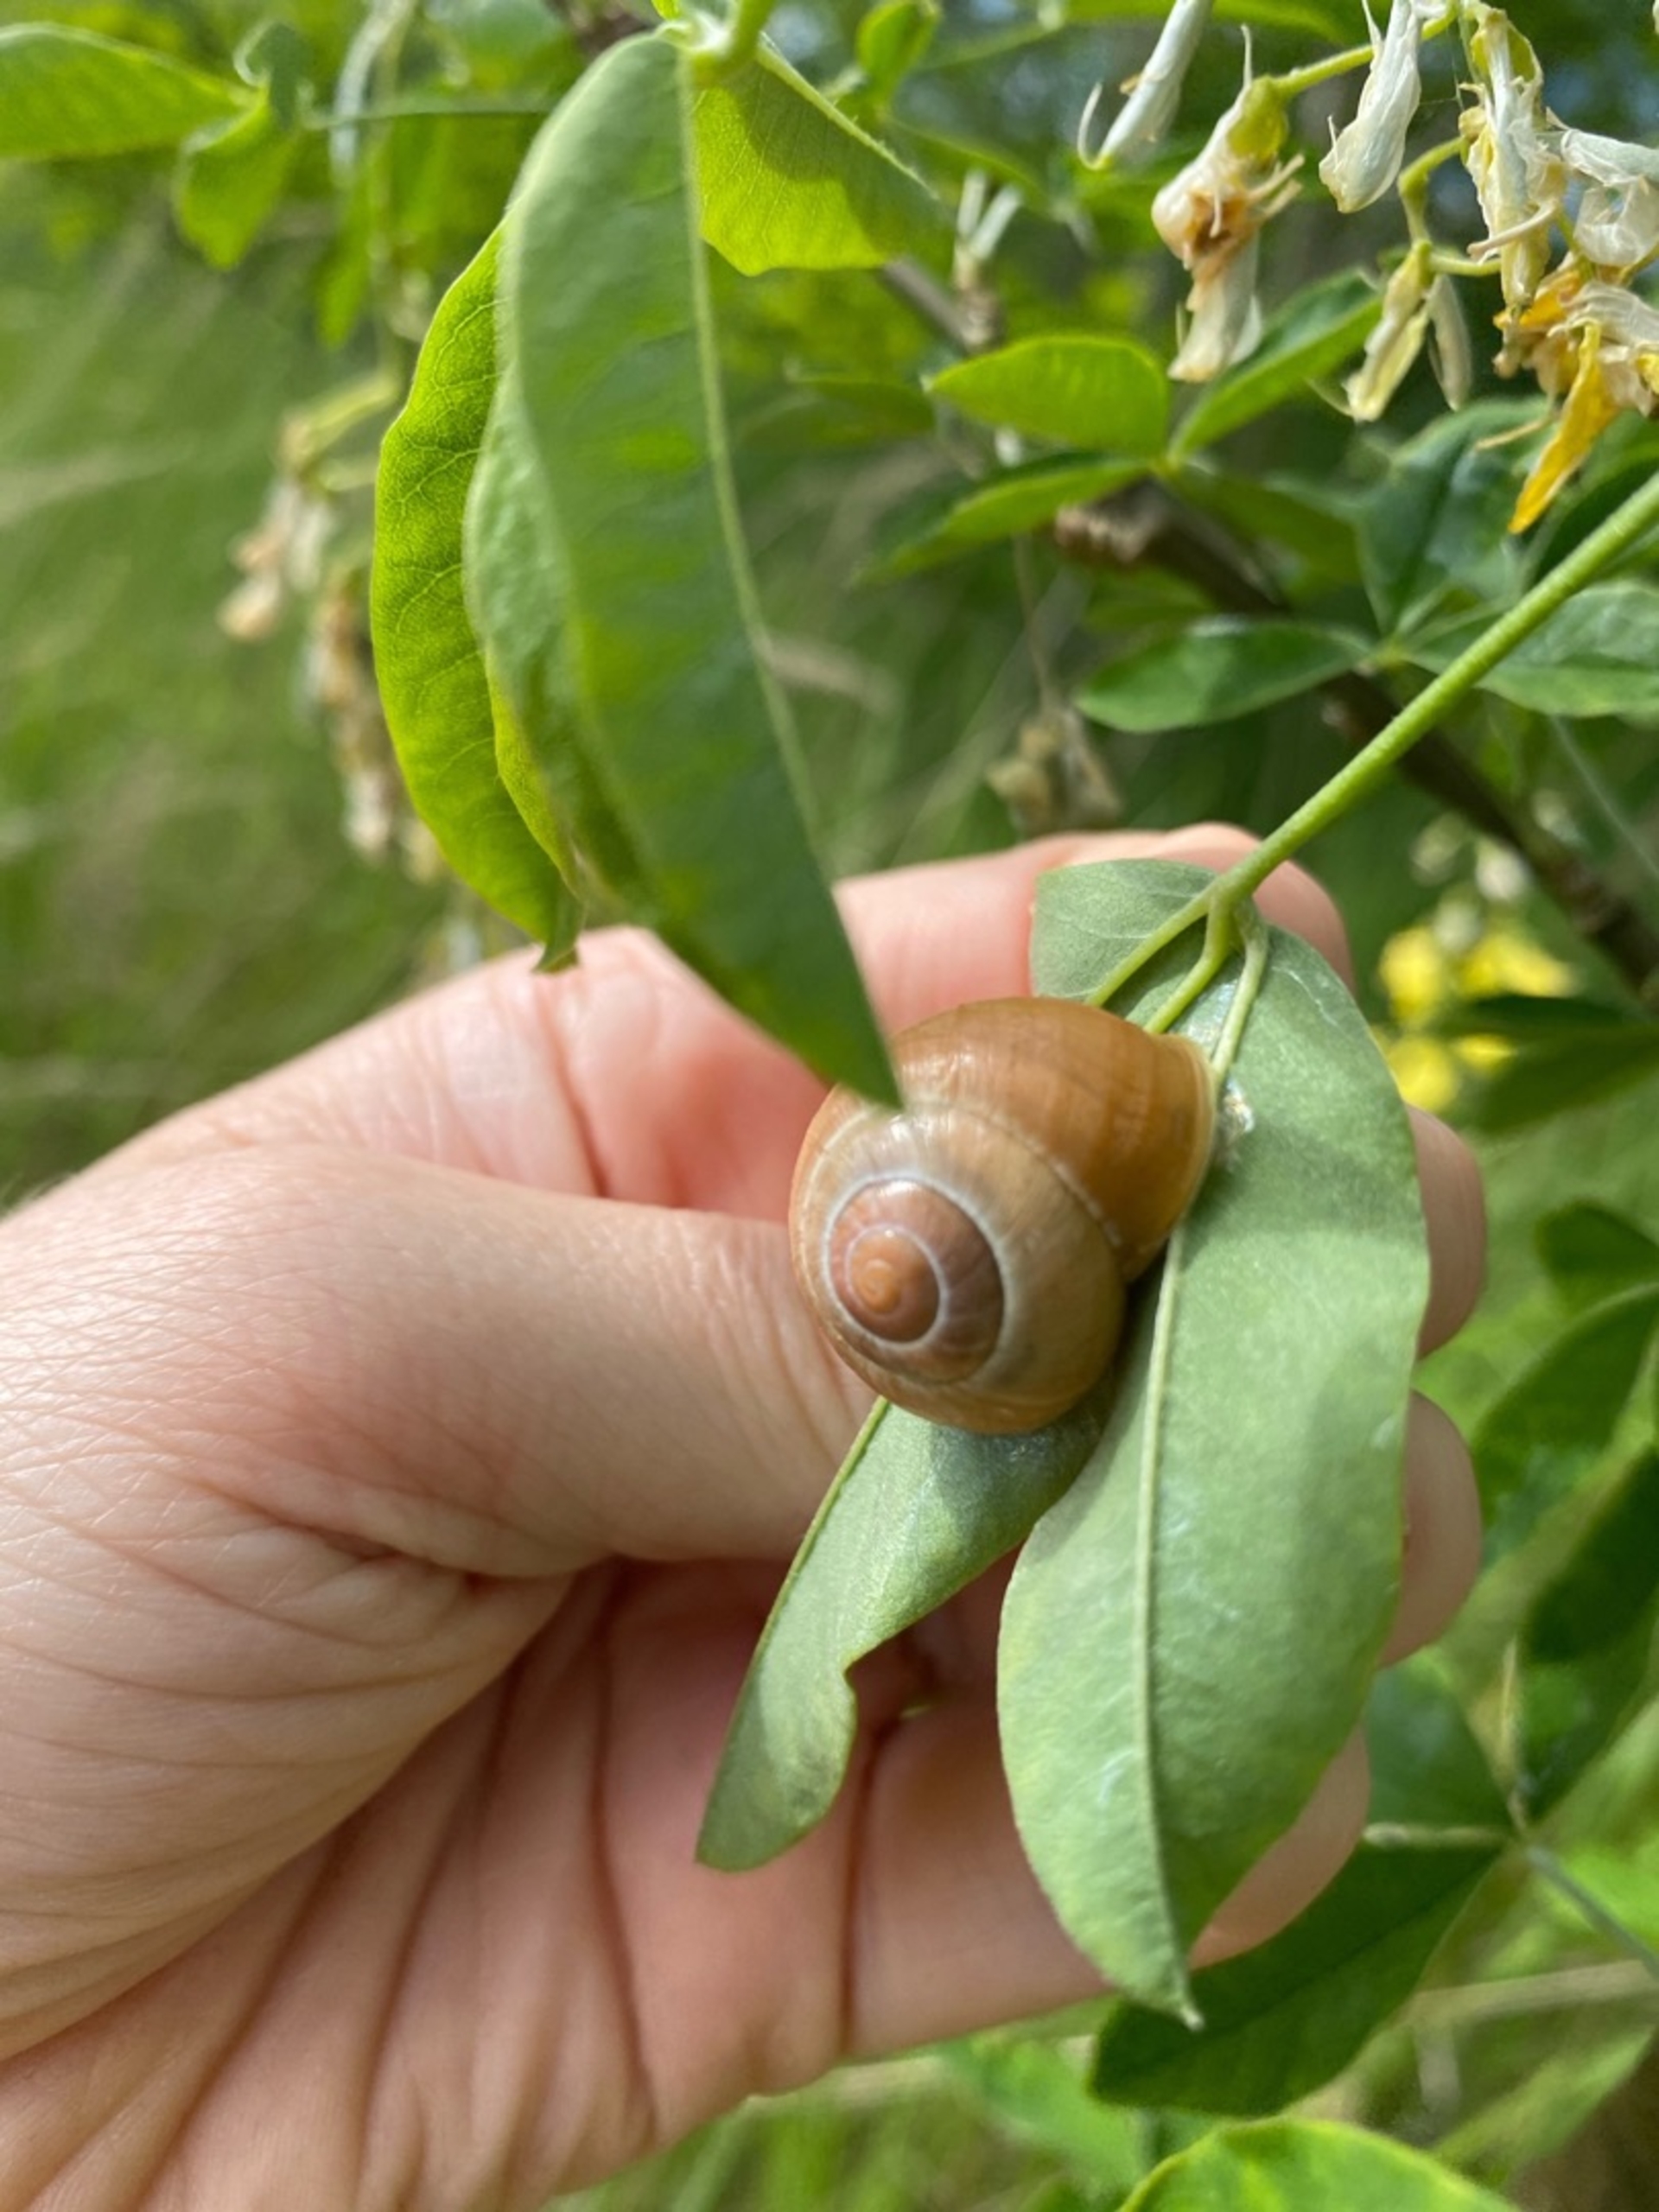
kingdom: Animalia
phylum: Mollusca
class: Gastropoda
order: Stylommatophora
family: Helicidae
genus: Cepaea
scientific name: Cepaea hortensis
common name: Havesnegl
